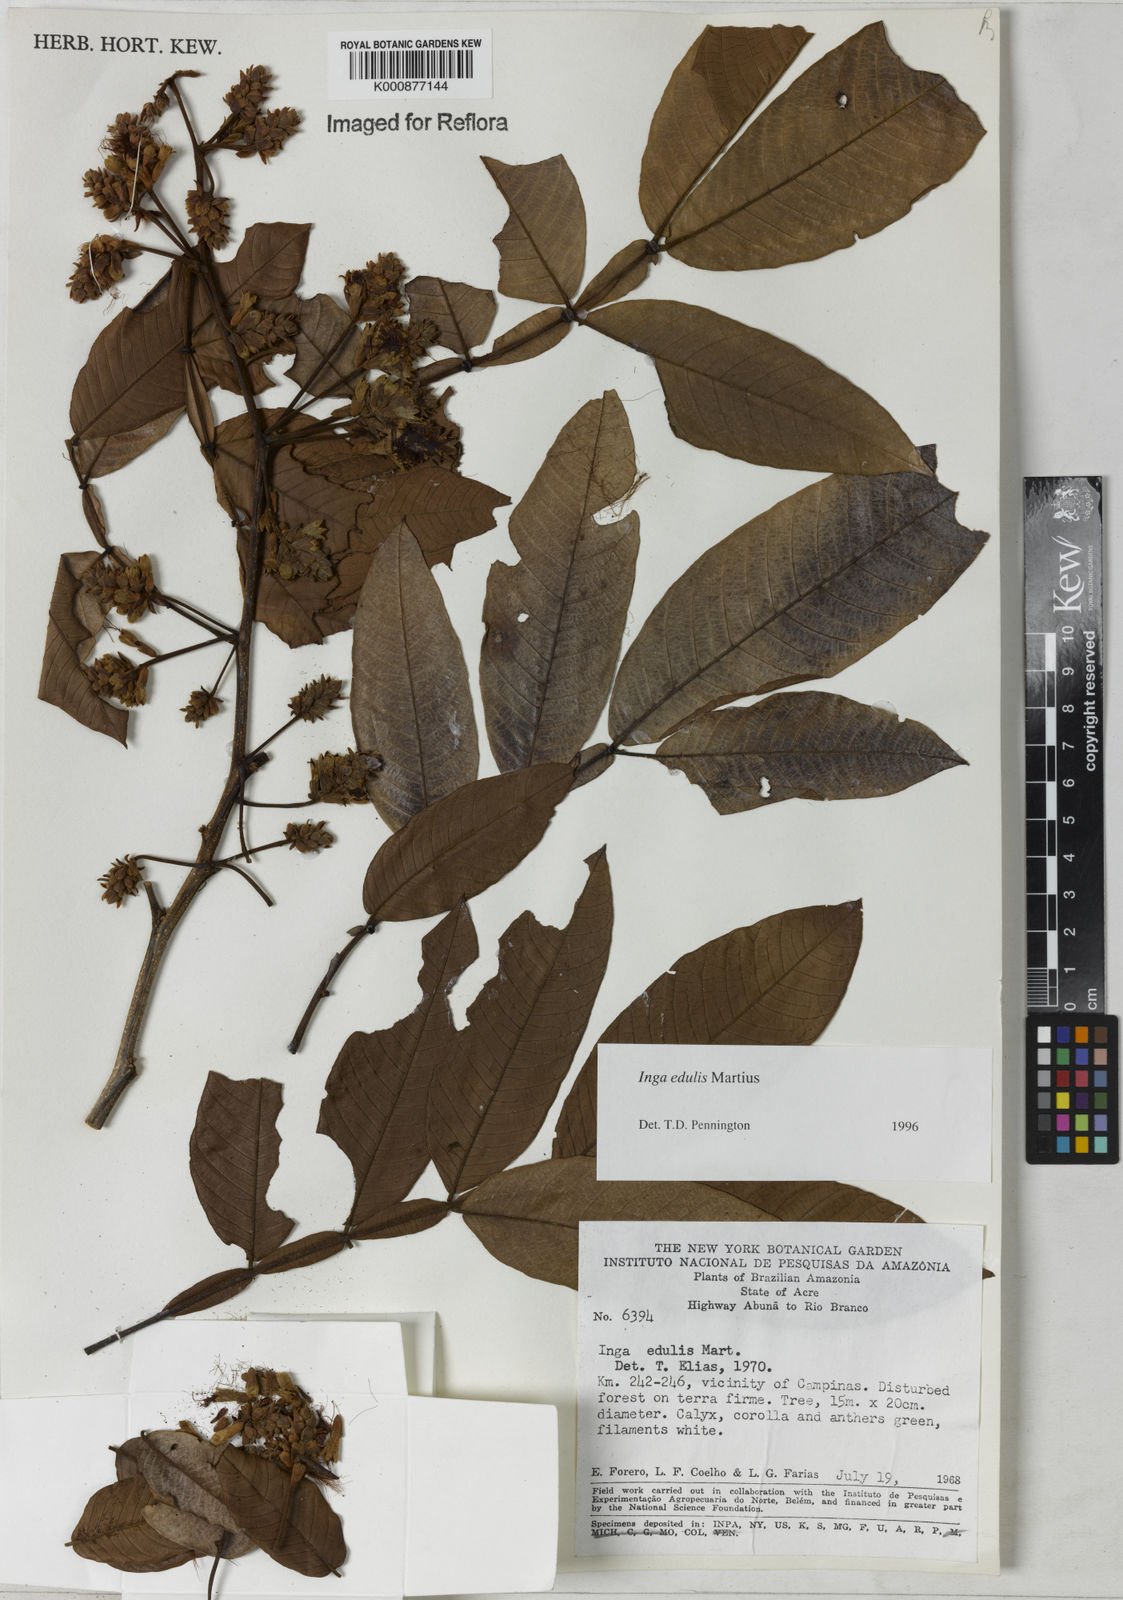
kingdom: Plantae
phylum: Tracheophyta
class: Magnoliopsida
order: Fabales
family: Fabaceae
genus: Inga
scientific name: Inga edulis
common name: Ice cream bean
